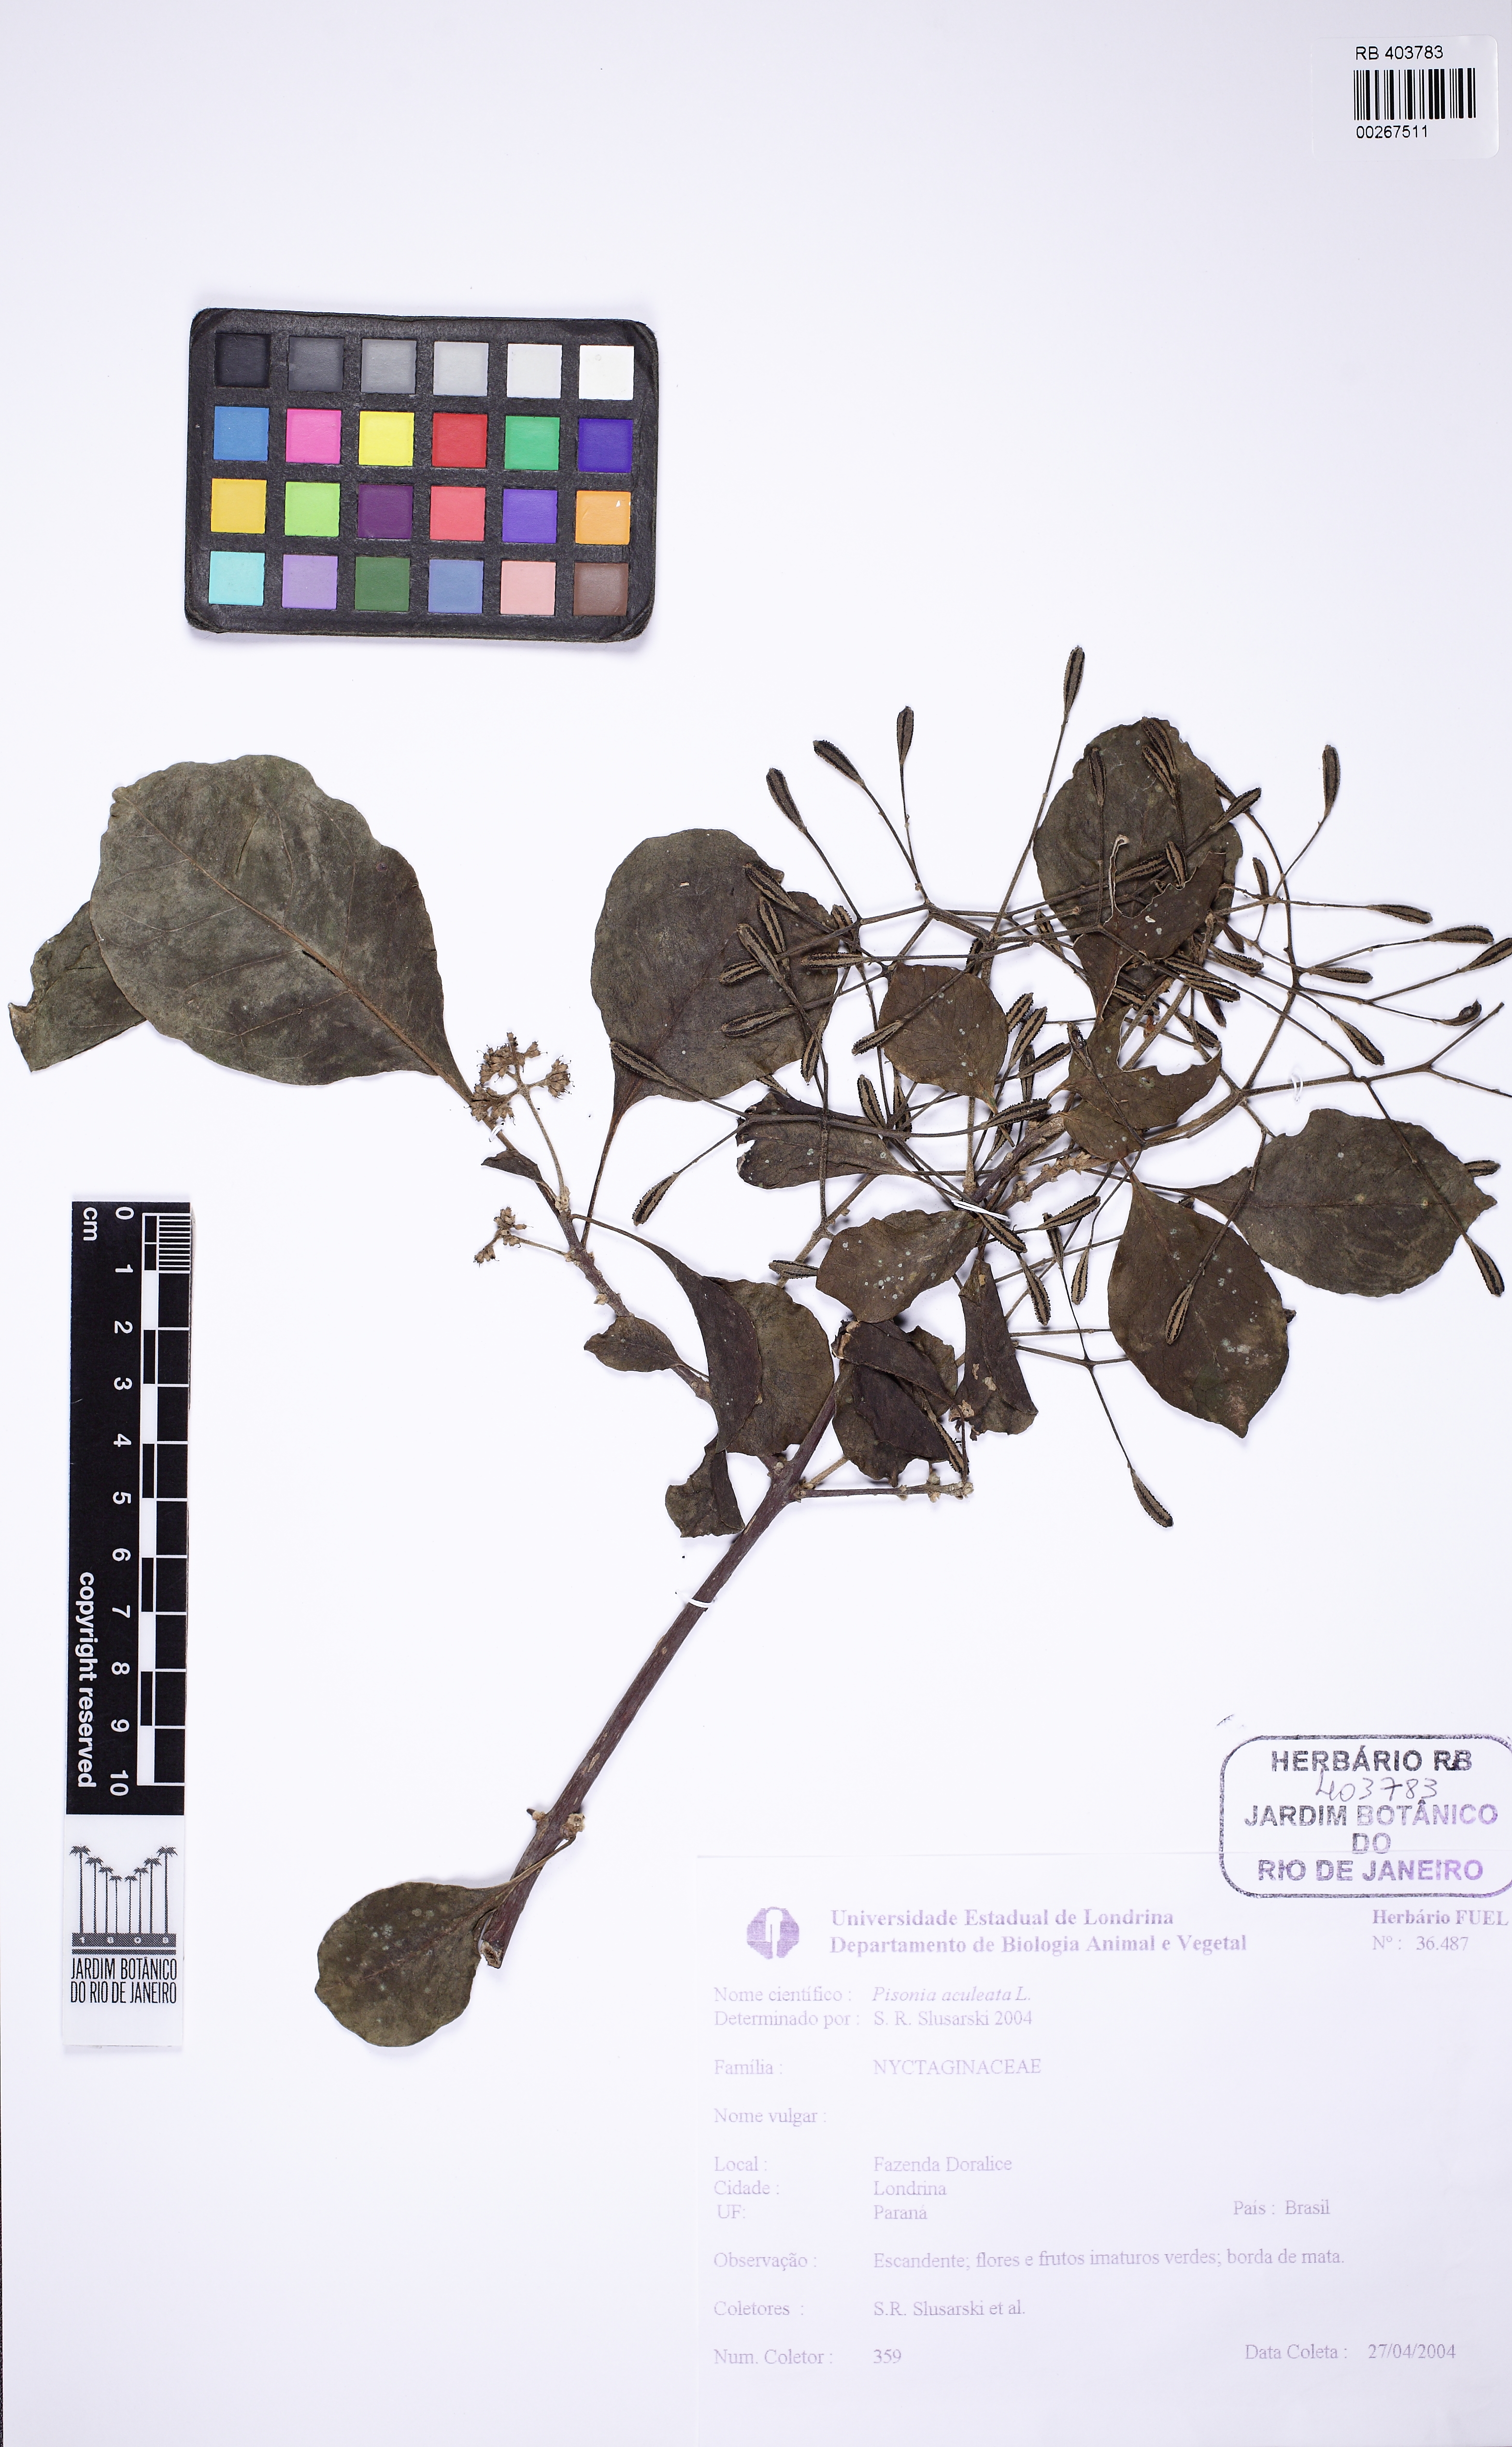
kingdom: Plantae
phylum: Tracheophyta
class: Magnoliopsida
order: Caryophyllales
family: Nyctaginaceae
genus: Pisonia
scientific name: Pisonia aculeata
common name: Cockspur vine
